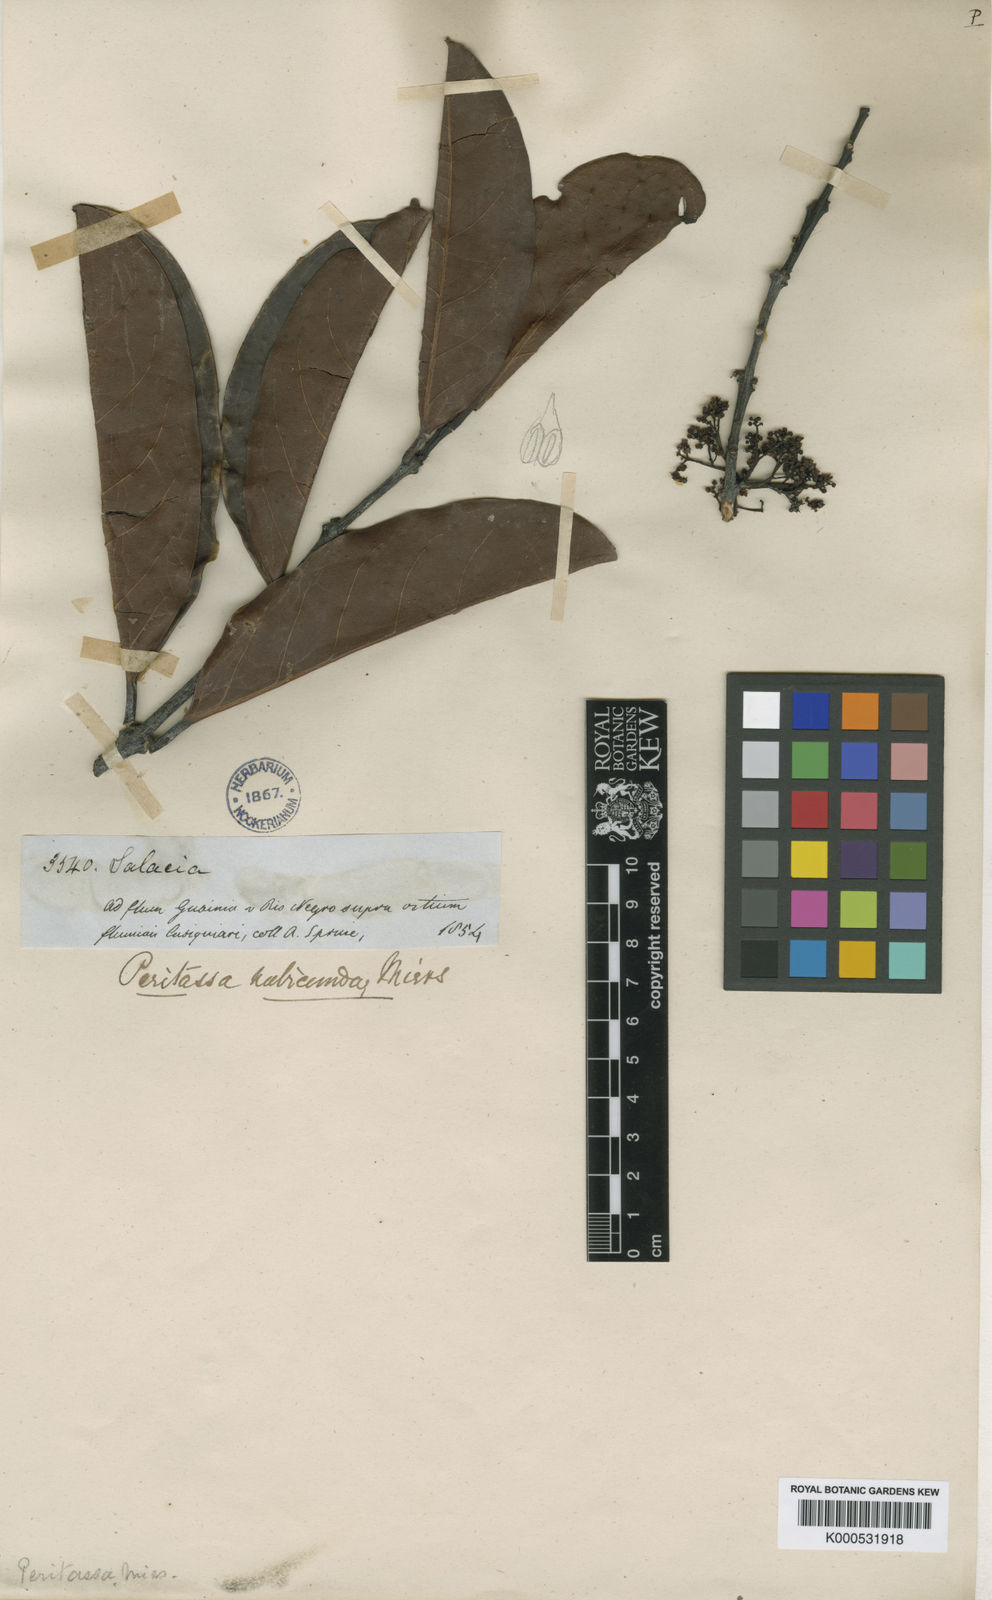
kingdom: Plantae
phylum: Tracheophyta
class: Magnoliopsida
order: Celastrales
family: Celastraceae
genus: Peritassa
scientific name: Peritassa laevigata
